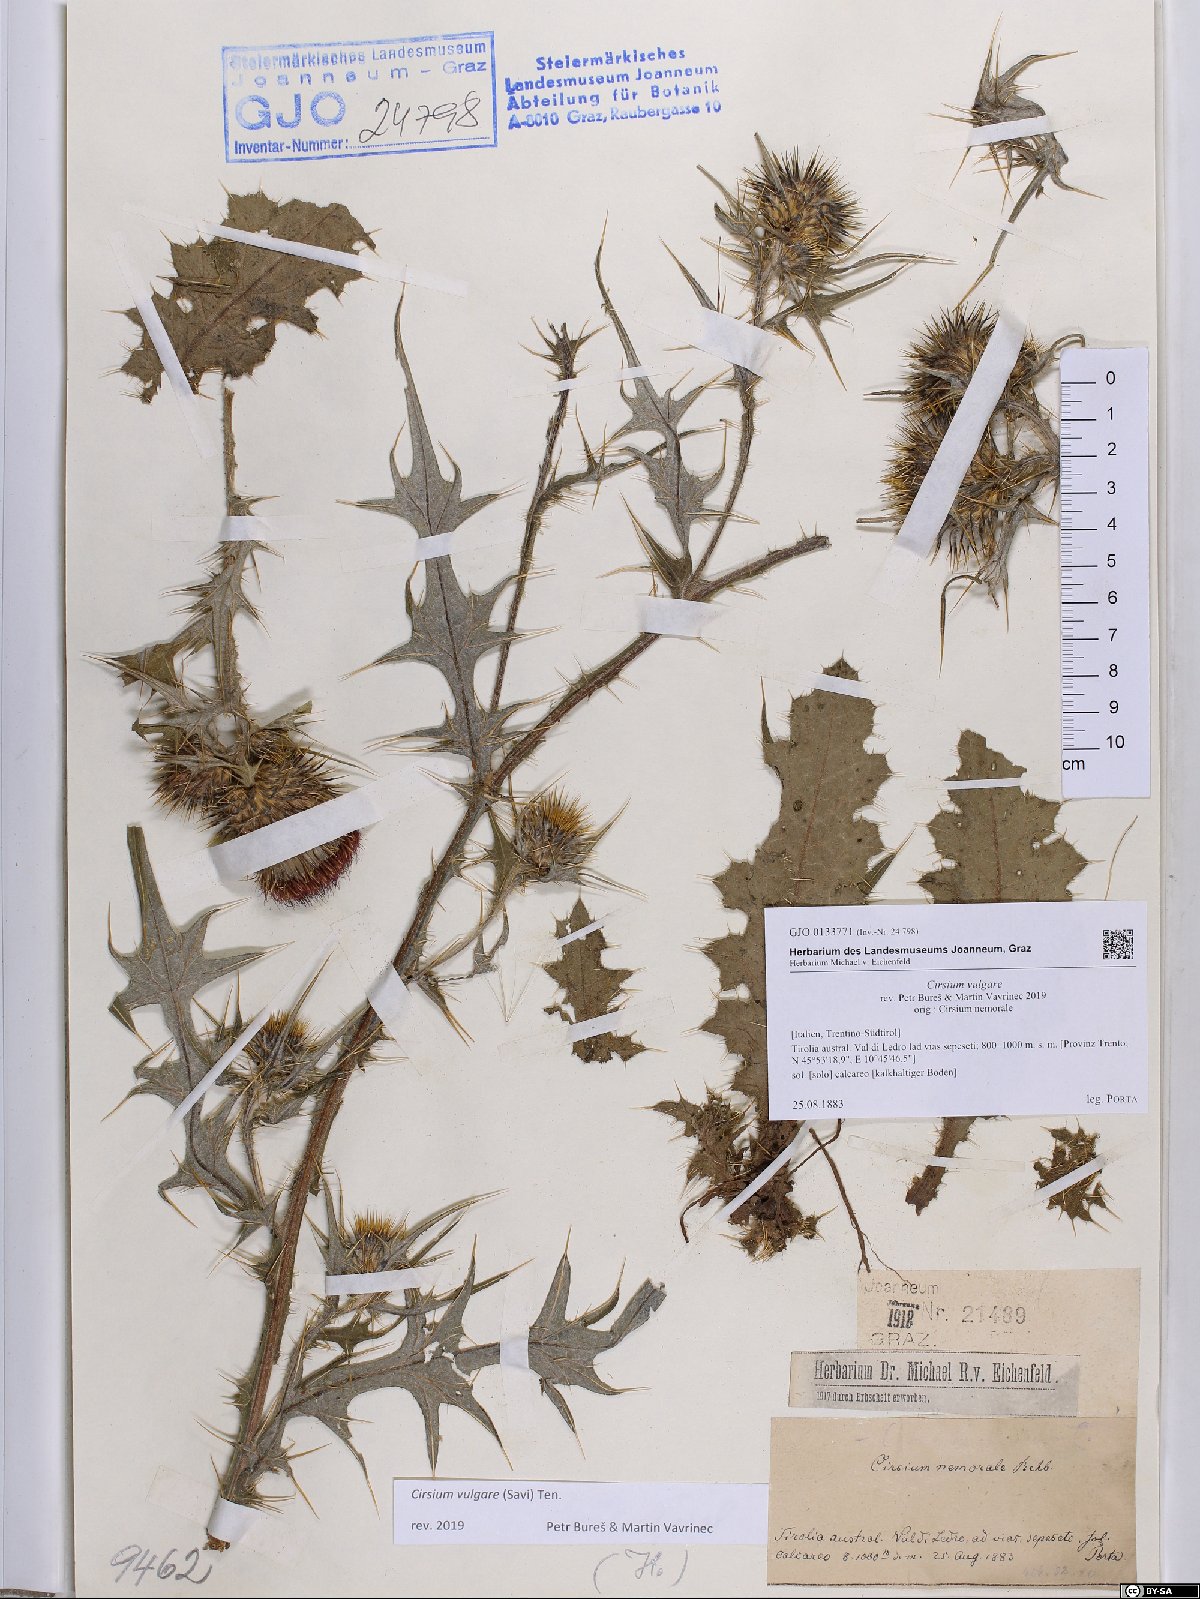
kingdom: Plantae
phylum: Tracheophyta
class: Magnoliopsida
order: Asterales
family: Asteraceae
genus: Cirsium
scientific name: Cirsium vulgare
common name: Bull thistle
